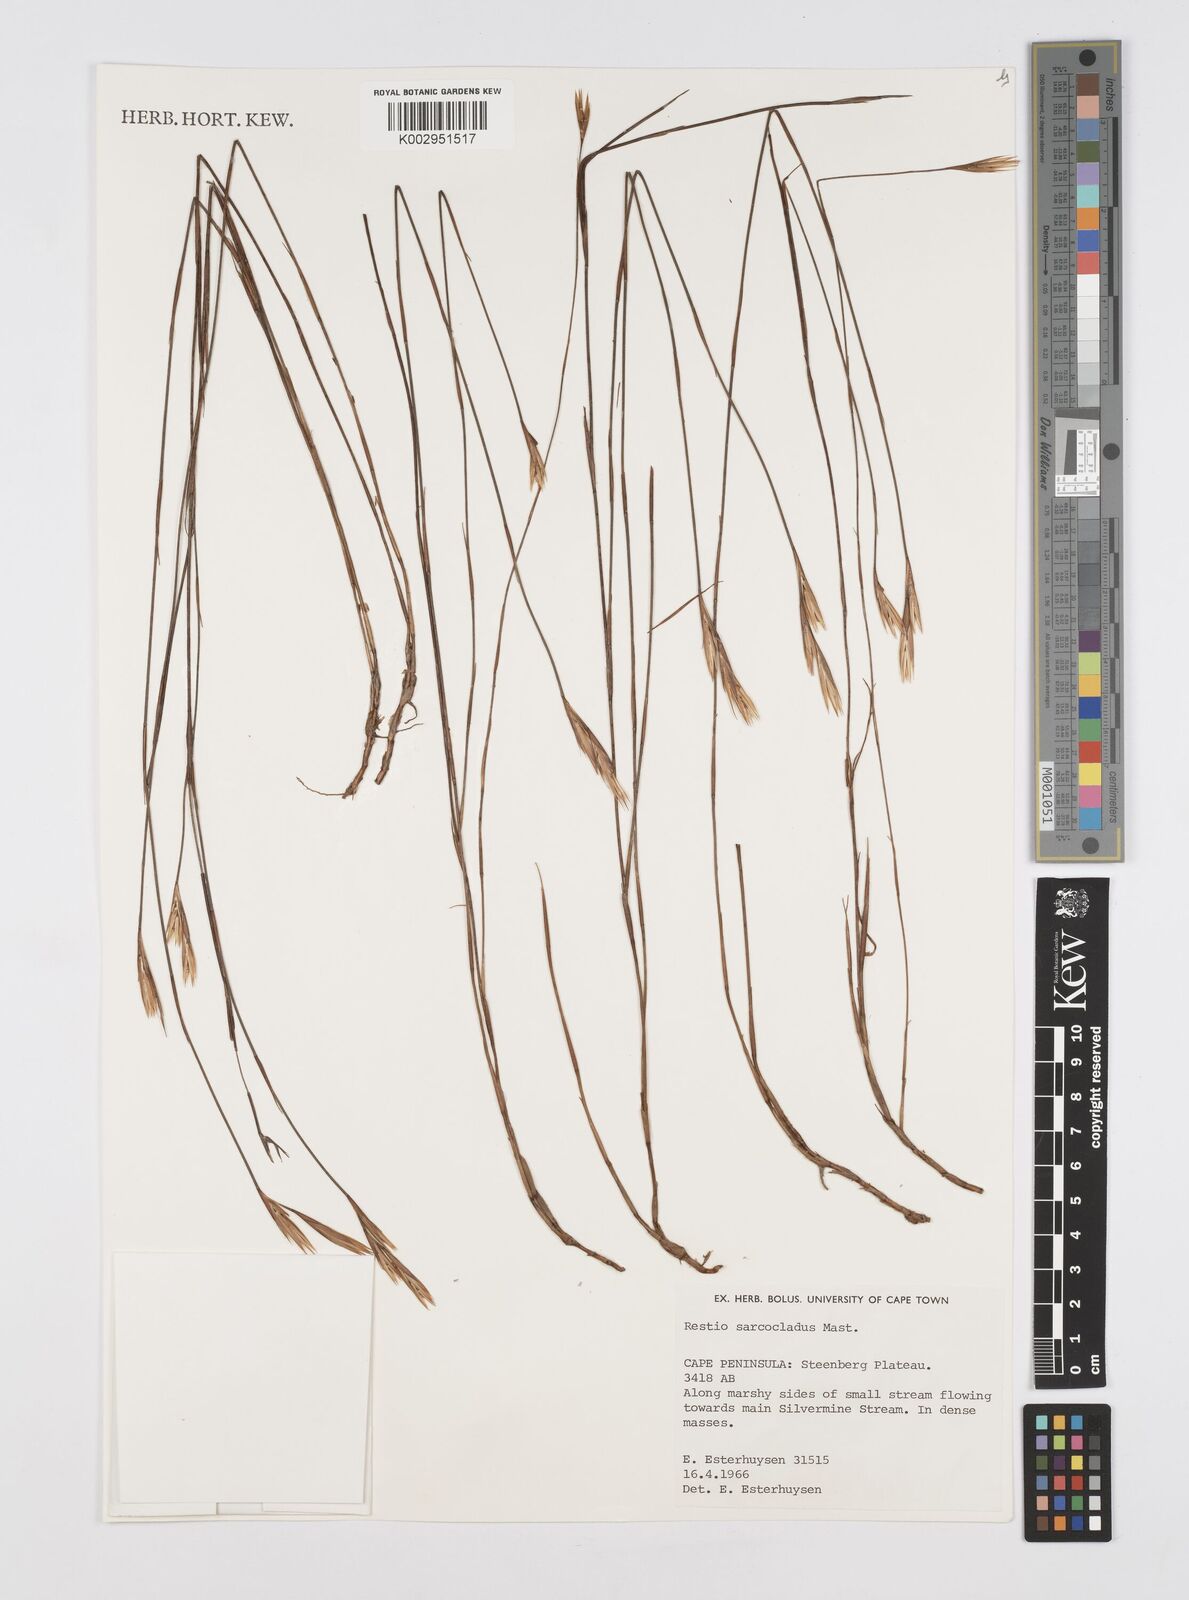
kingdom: Plantae
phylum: Tracheophyta
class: Liliopsida
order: Poales
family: Restionaceae
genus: Restio
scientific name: Restio saroclados
